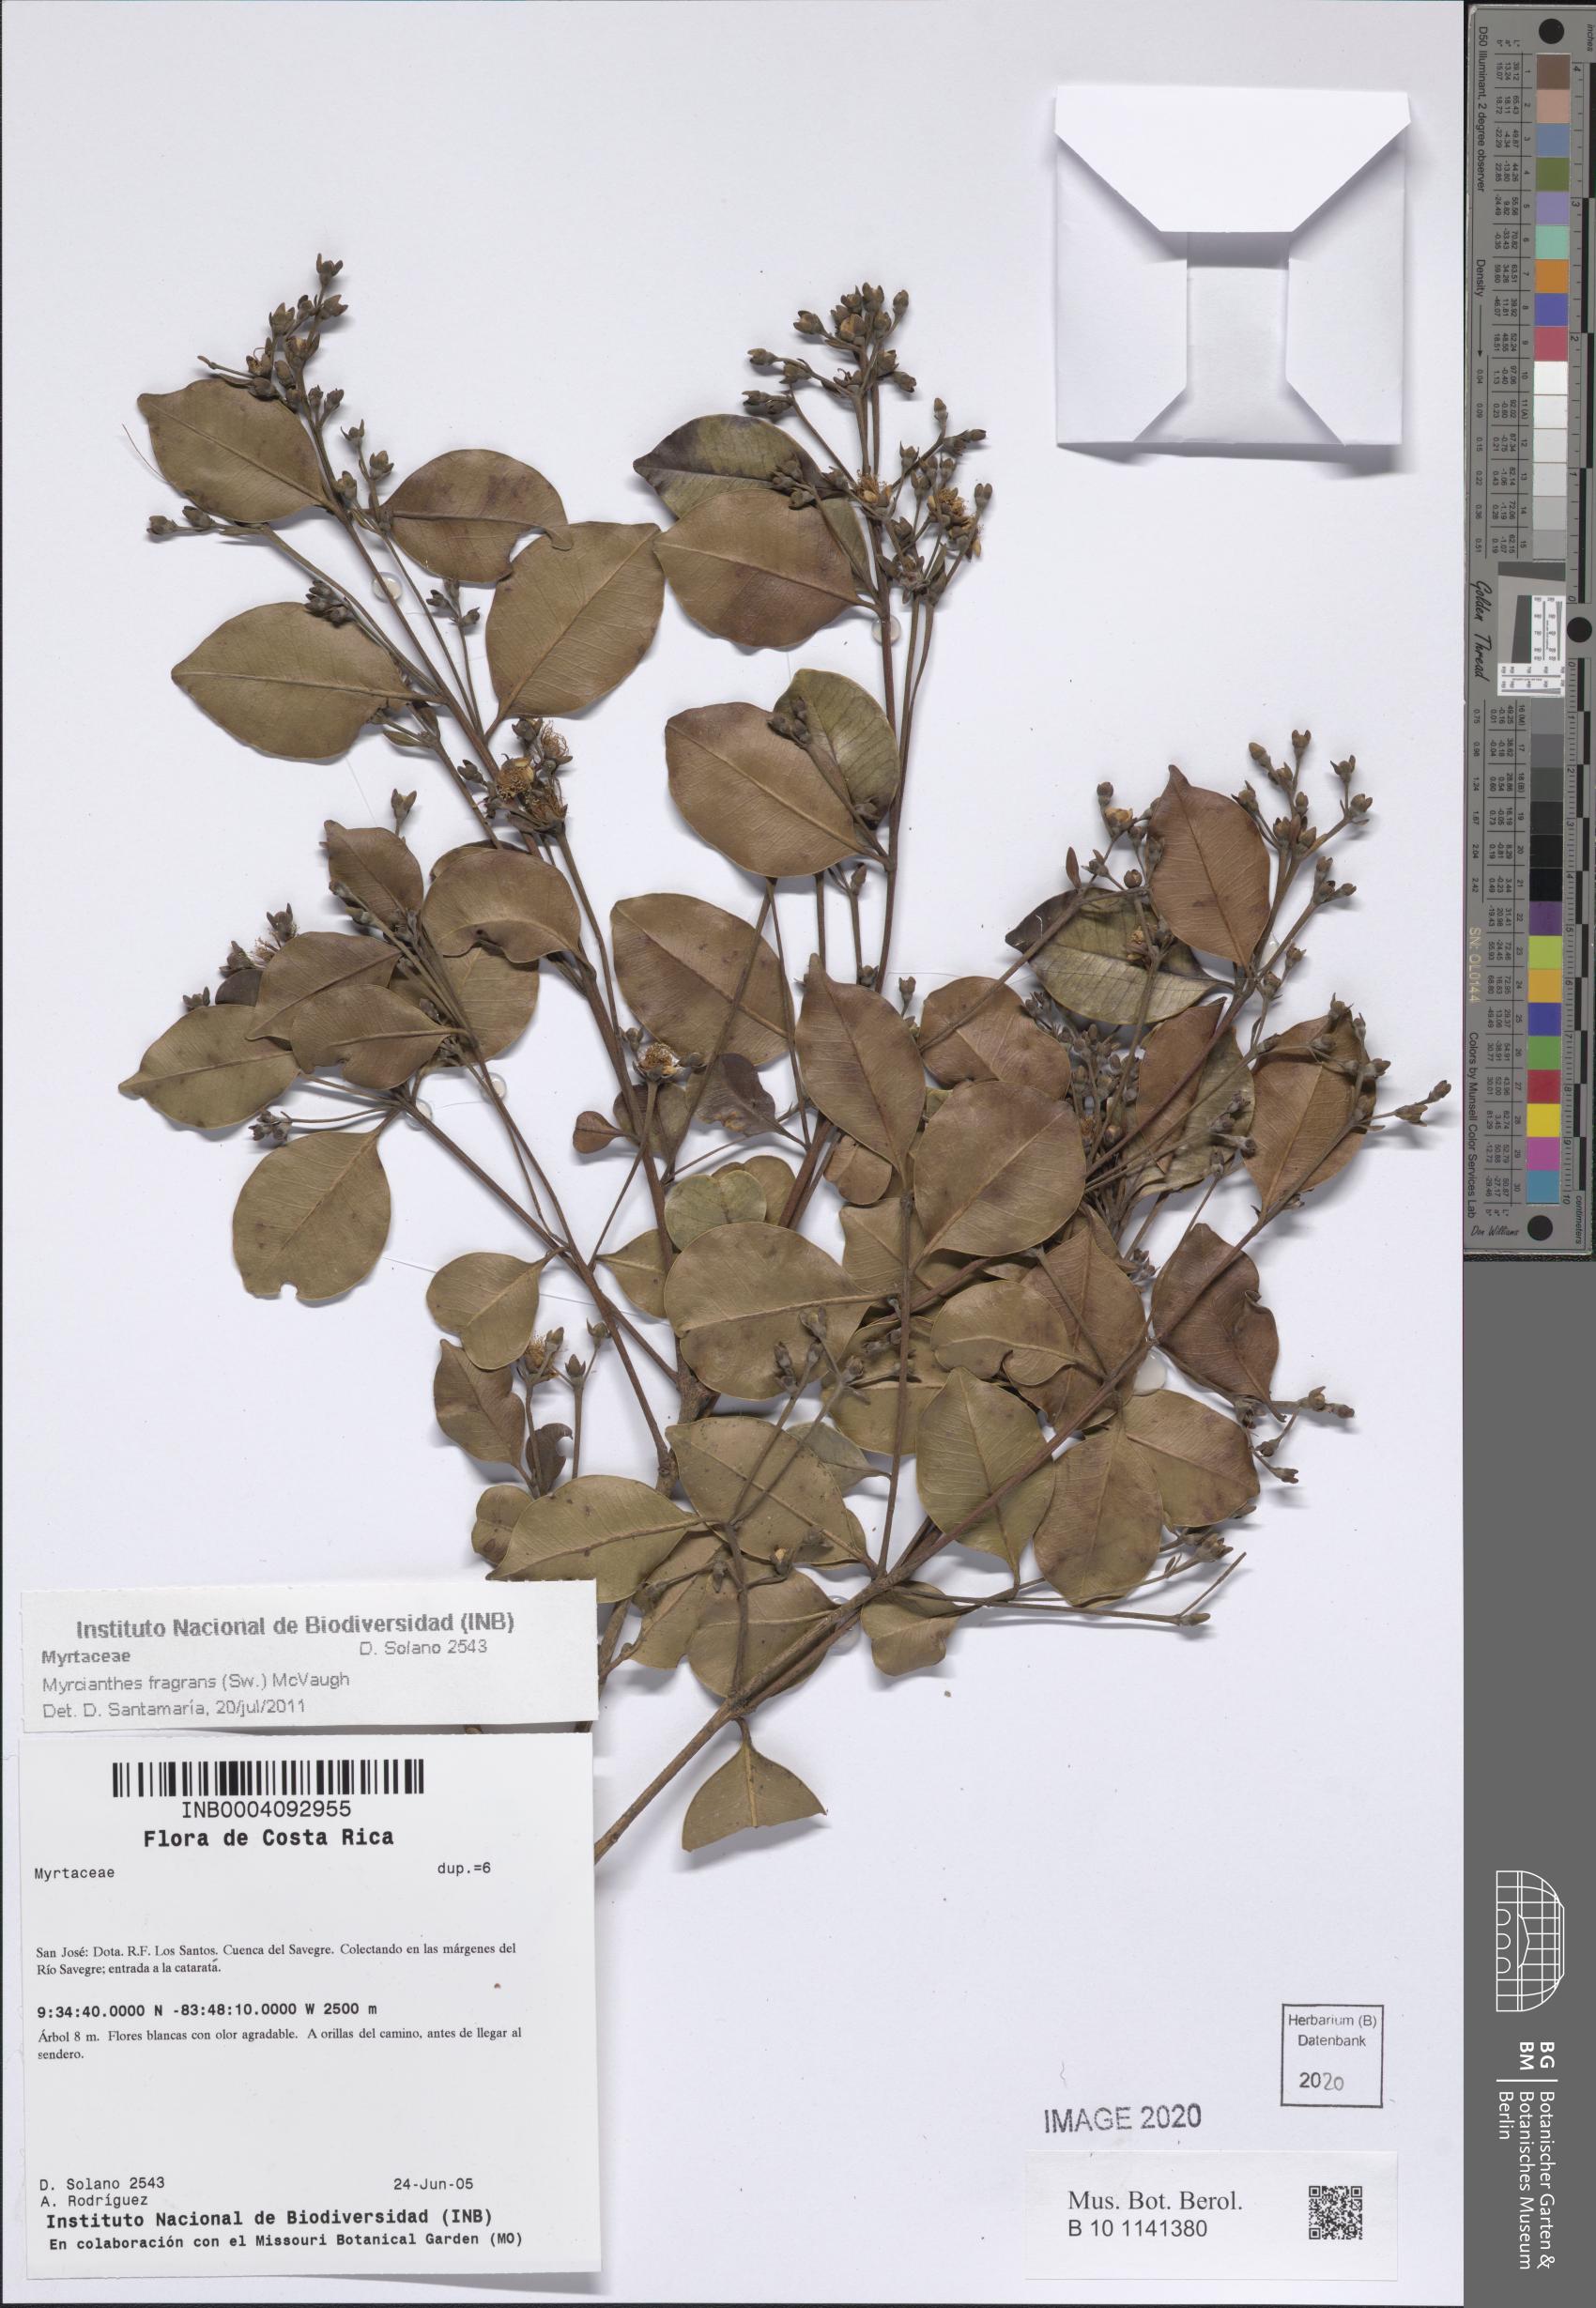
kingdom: Plantae
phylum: Tracheophyta
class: Magnoliopsida
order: Myrtales
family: Myrtaceae
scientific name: Myrtaceae
